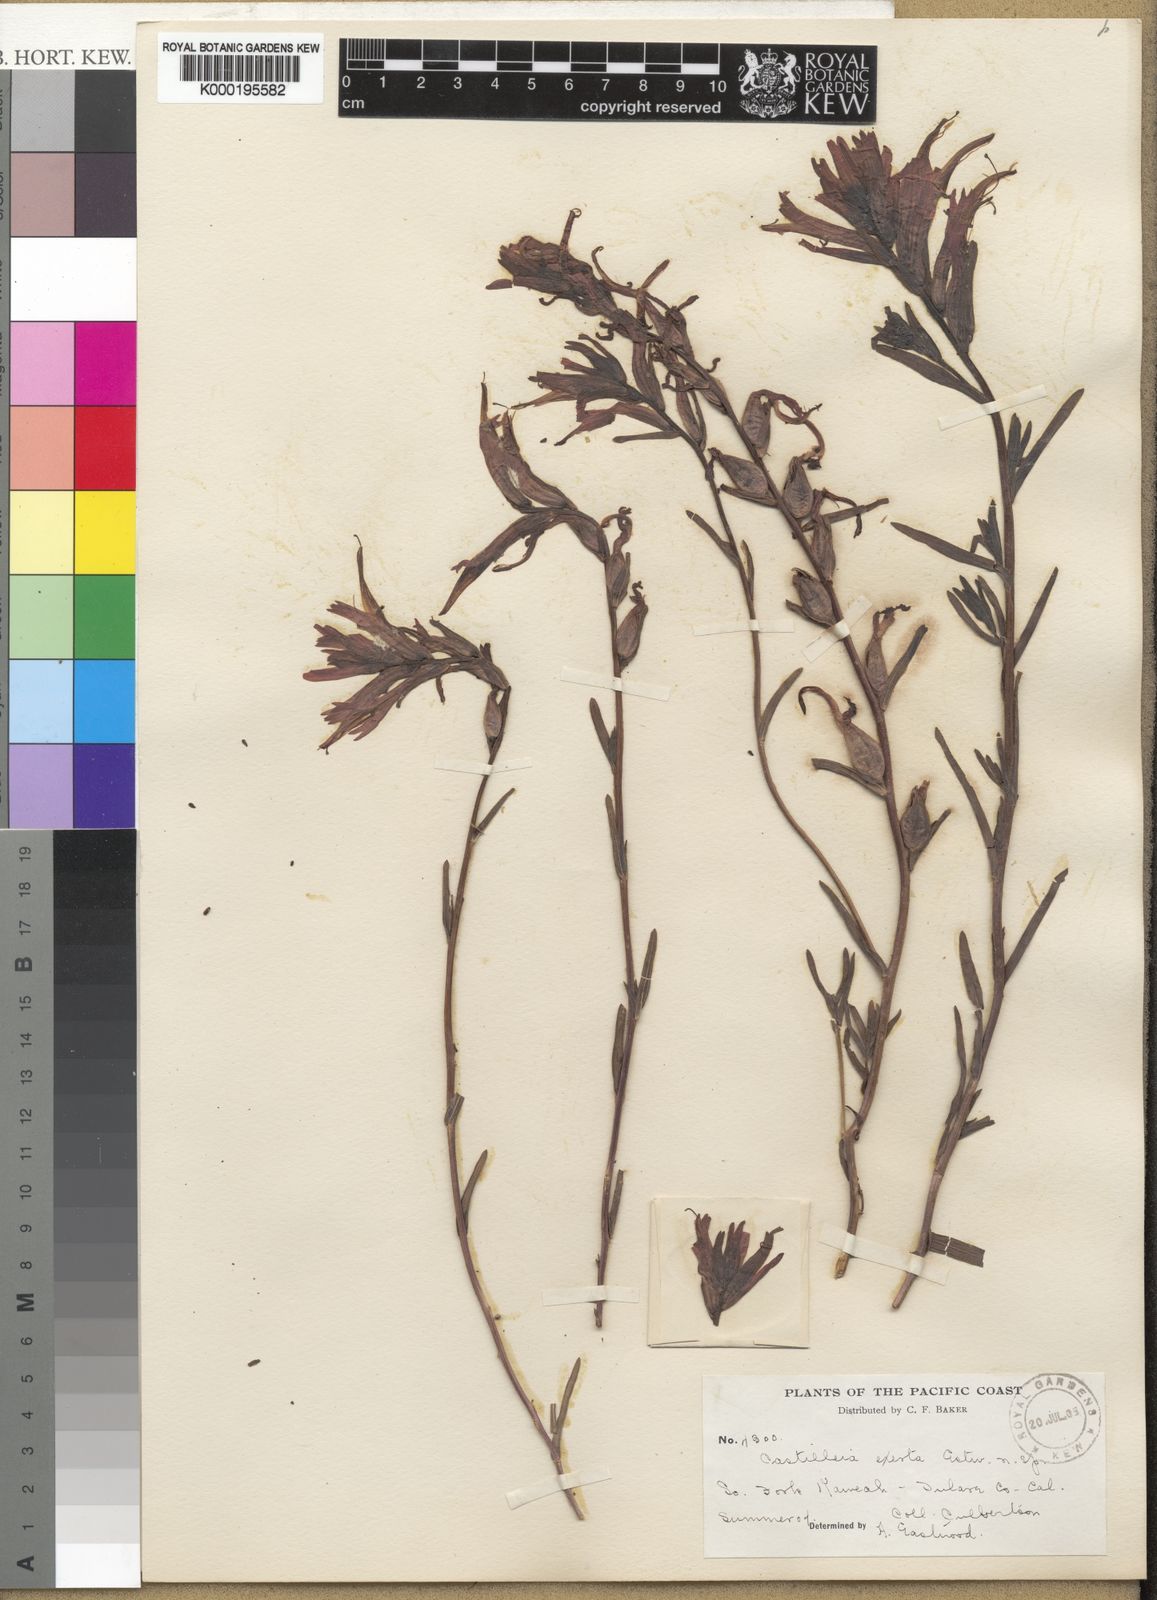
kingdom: Plantae
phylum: Tracheophyta
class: Magnoliopsida
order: Lamiales
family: Orobanchaceae
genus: Castilleja
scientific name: Castilleja subinclusa
